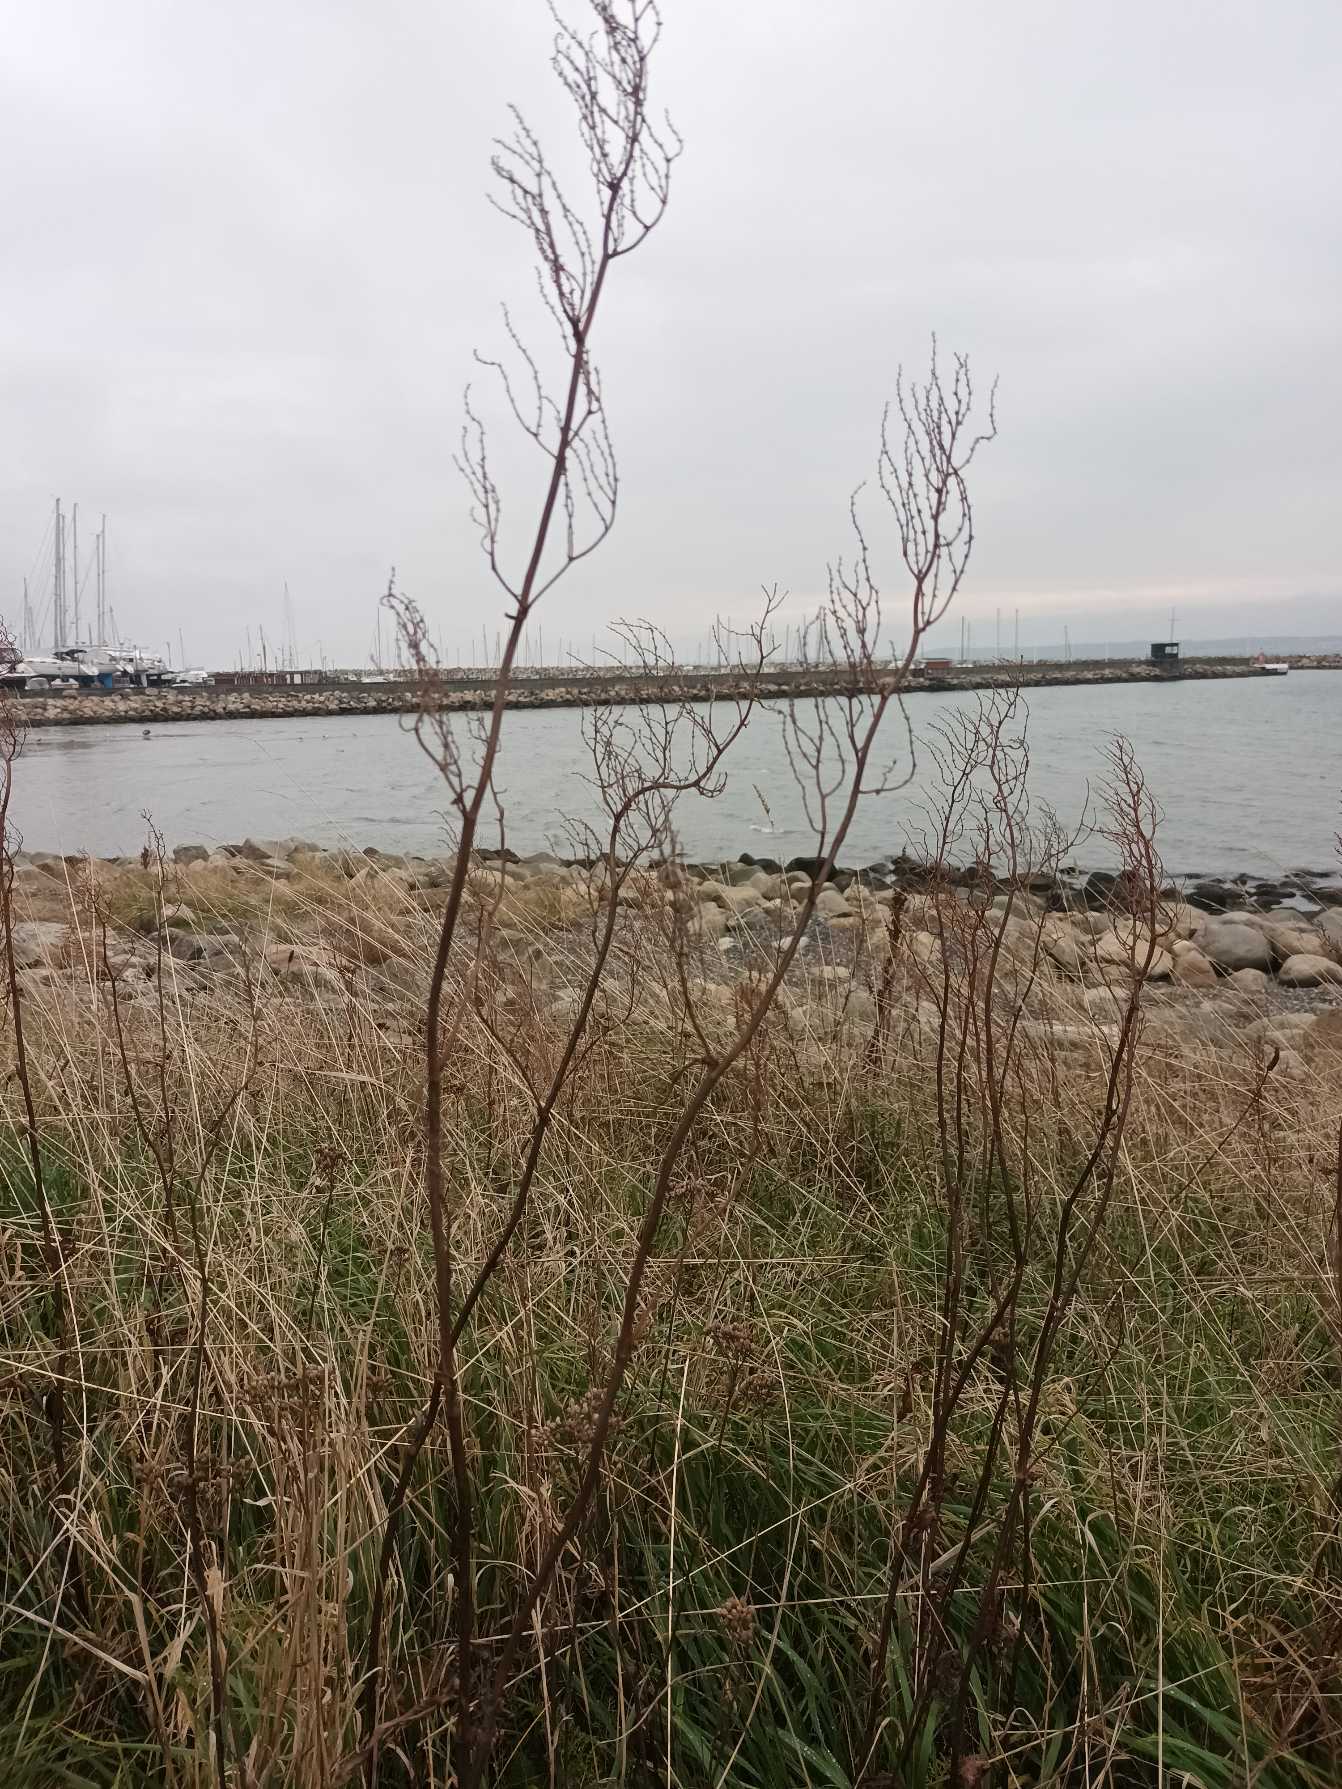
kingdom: Plantae
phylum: Tracheophyta
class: Magnoliopsida
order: Caryophyllales
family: Polygonaceae
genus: Rumex
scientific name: Rumex thyrsiflorus
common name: Dusk-syre
